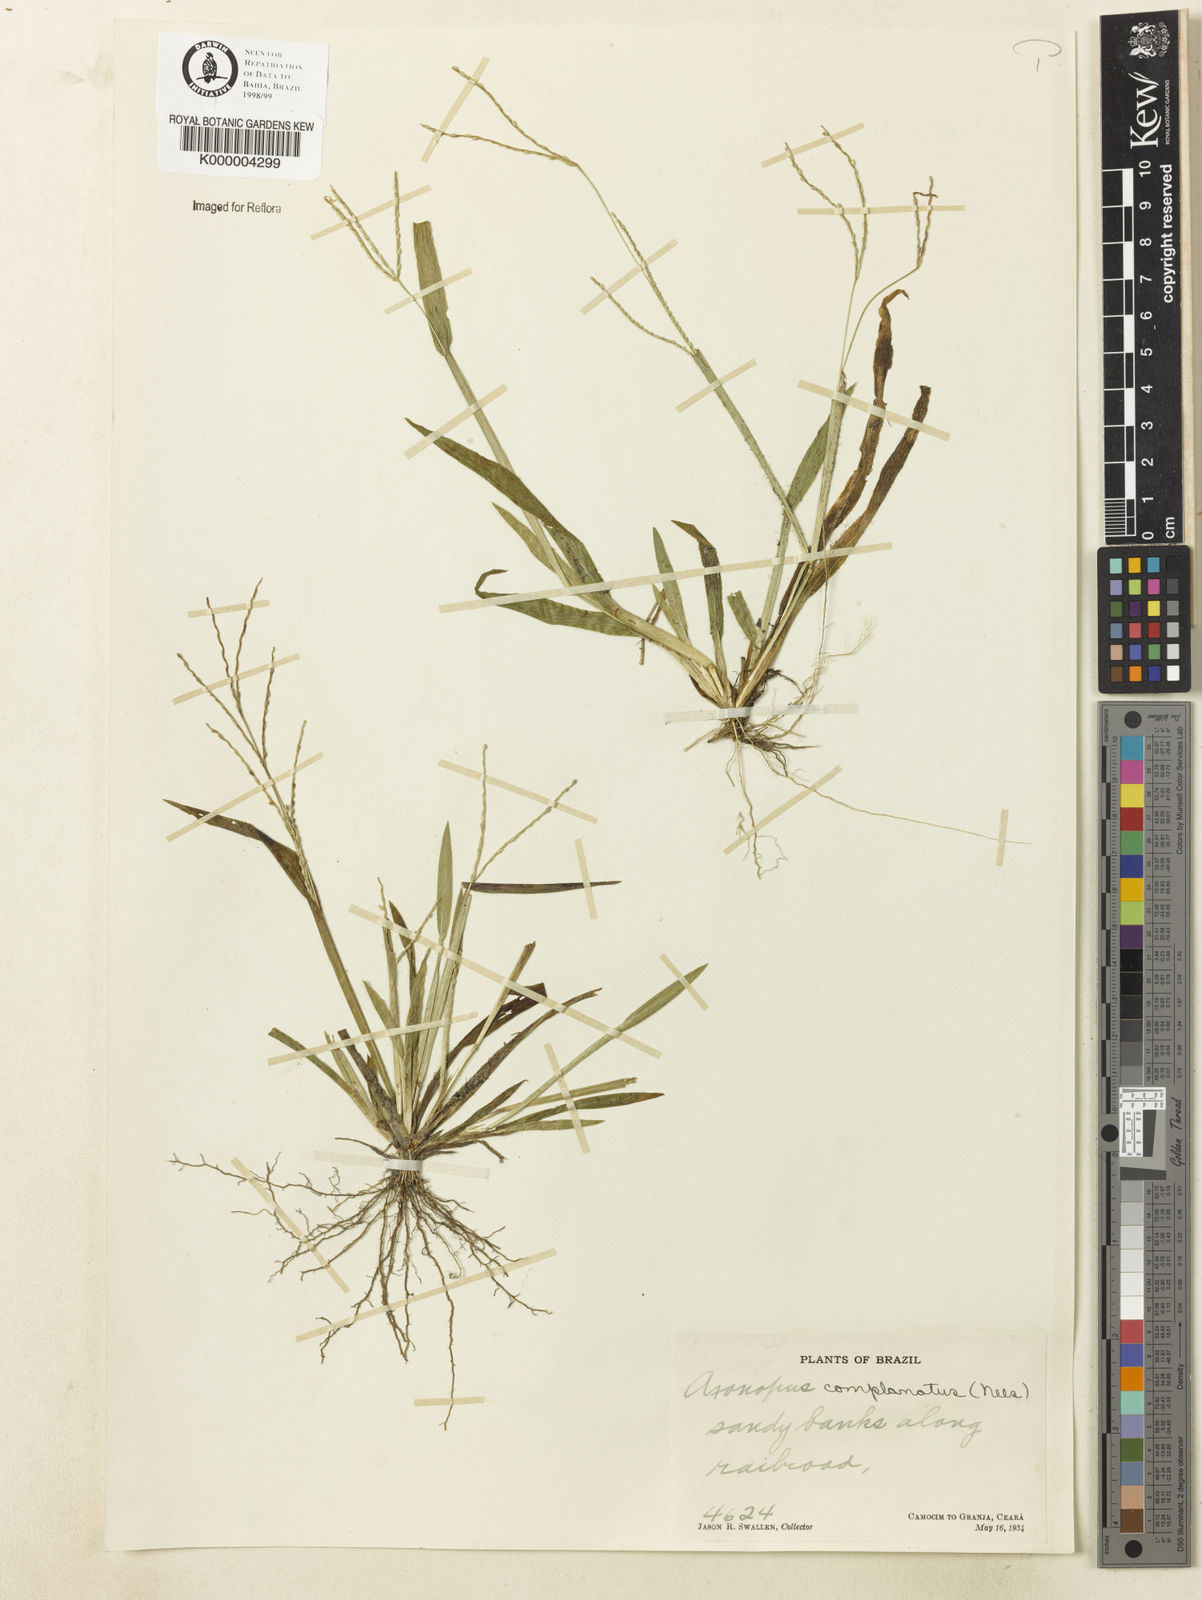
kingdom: Plantae
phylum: Tracheophyta
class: Liliopsida
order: Poales
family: Poaceae
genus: Axonopus
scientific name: Axonopus complanatus
